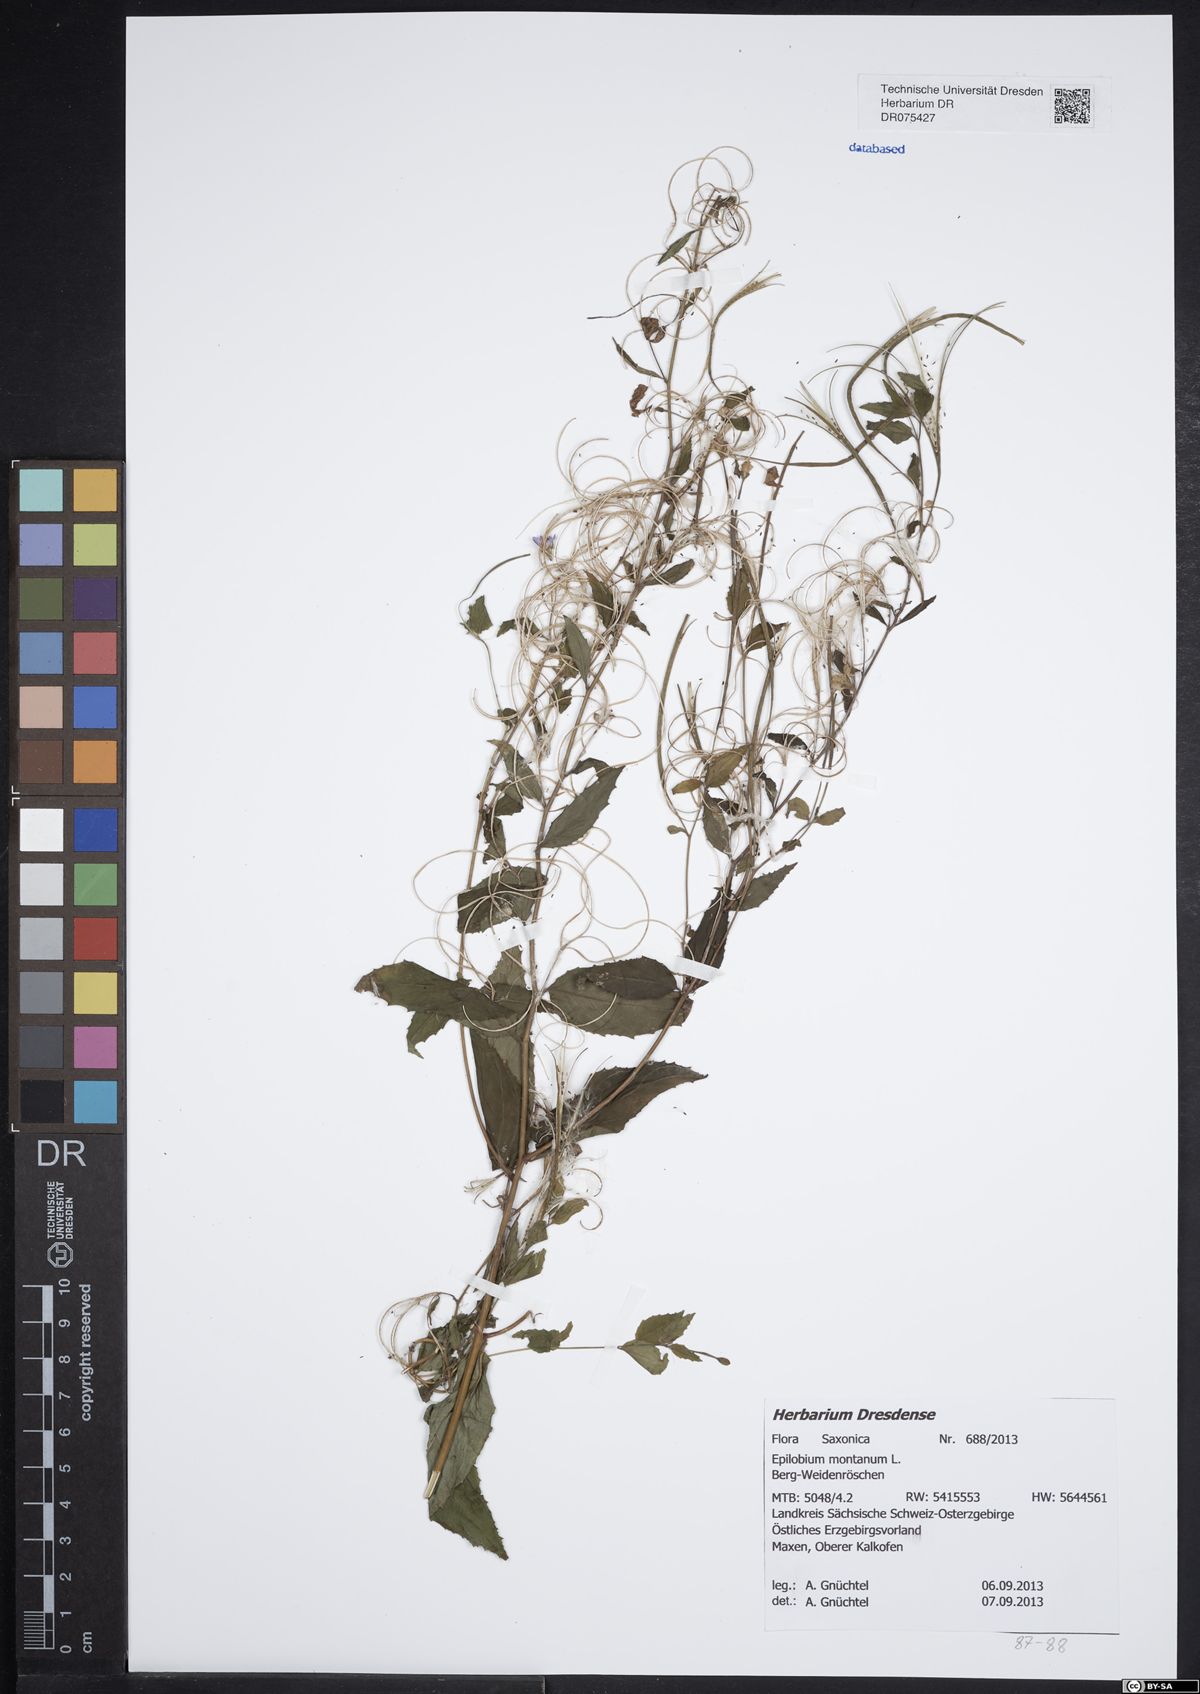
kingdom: Plantae
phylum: Tracheophyta
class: Magnoliopsida
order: Myrtales
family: Onagraceae
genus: Epilobium
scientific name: Epilobium montanum
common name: Broad-leaved willowherb
